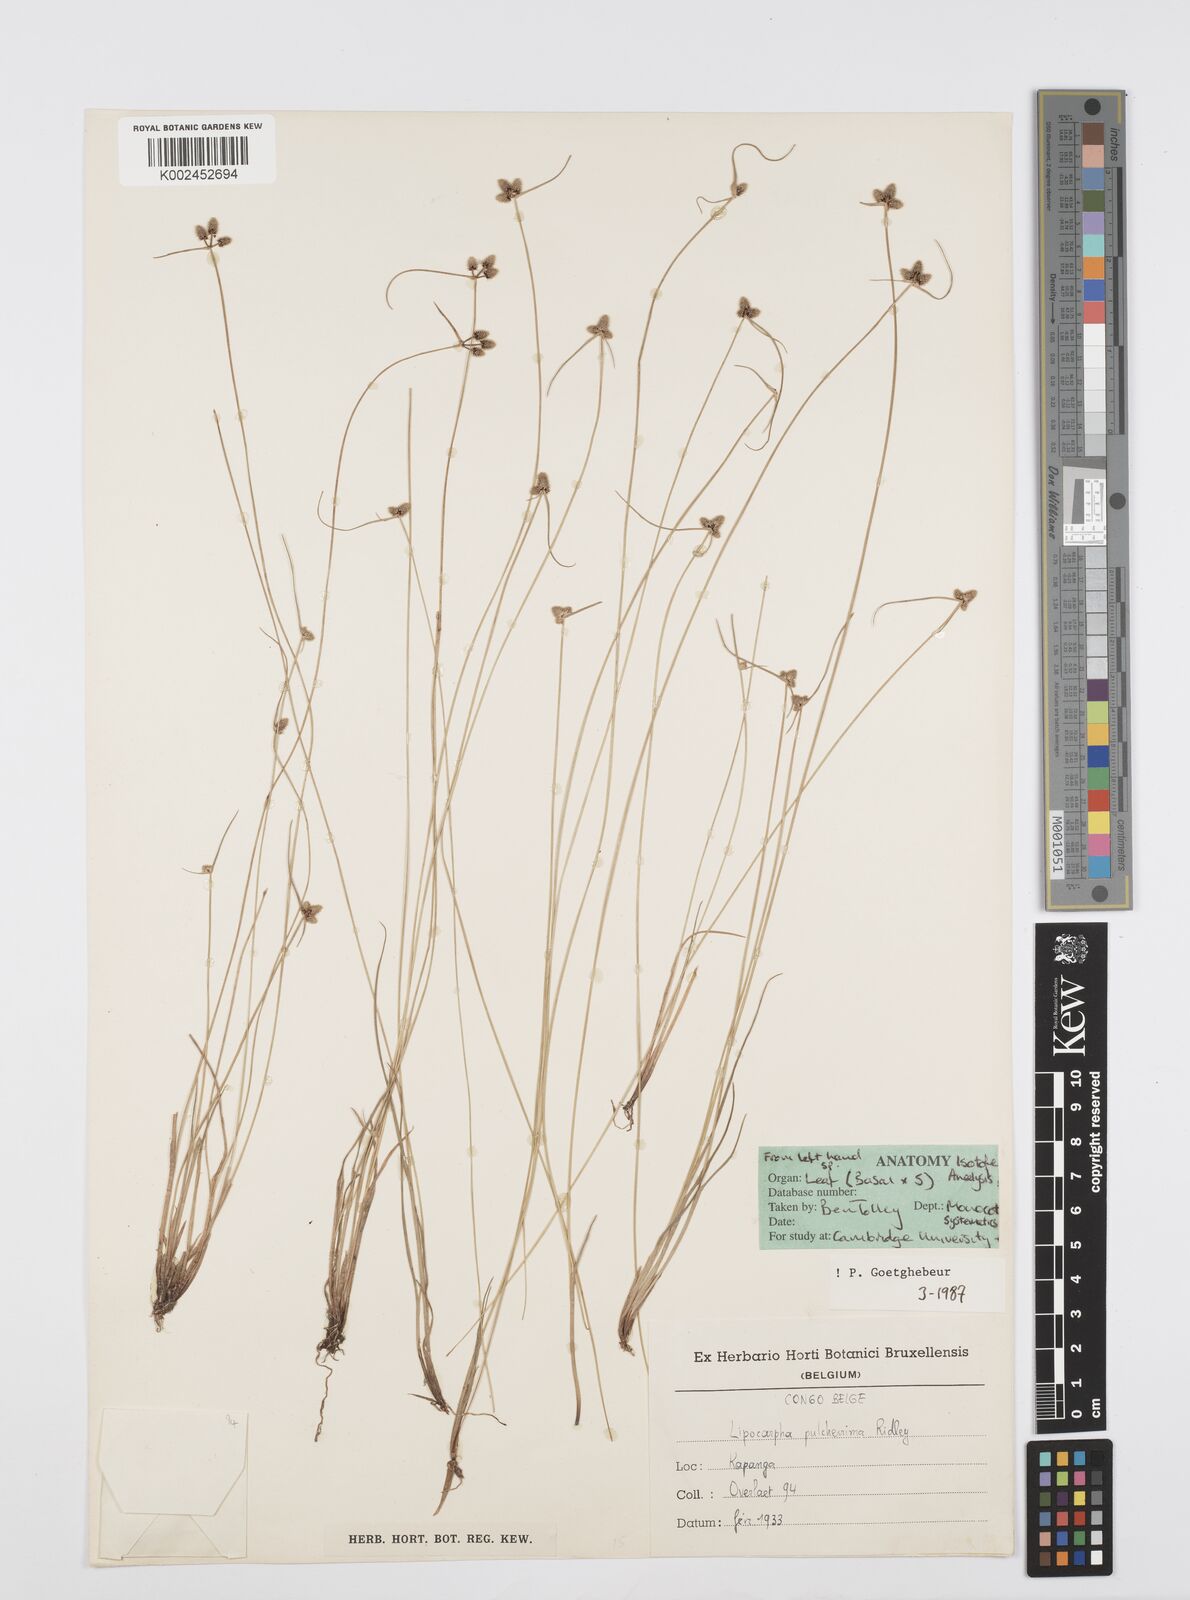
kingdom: Plantae
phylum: Tracheophyta
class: Liliopsida
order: Poales
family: Cyperaceae
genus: Cyperus
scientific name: Cyperus persquarrosus
